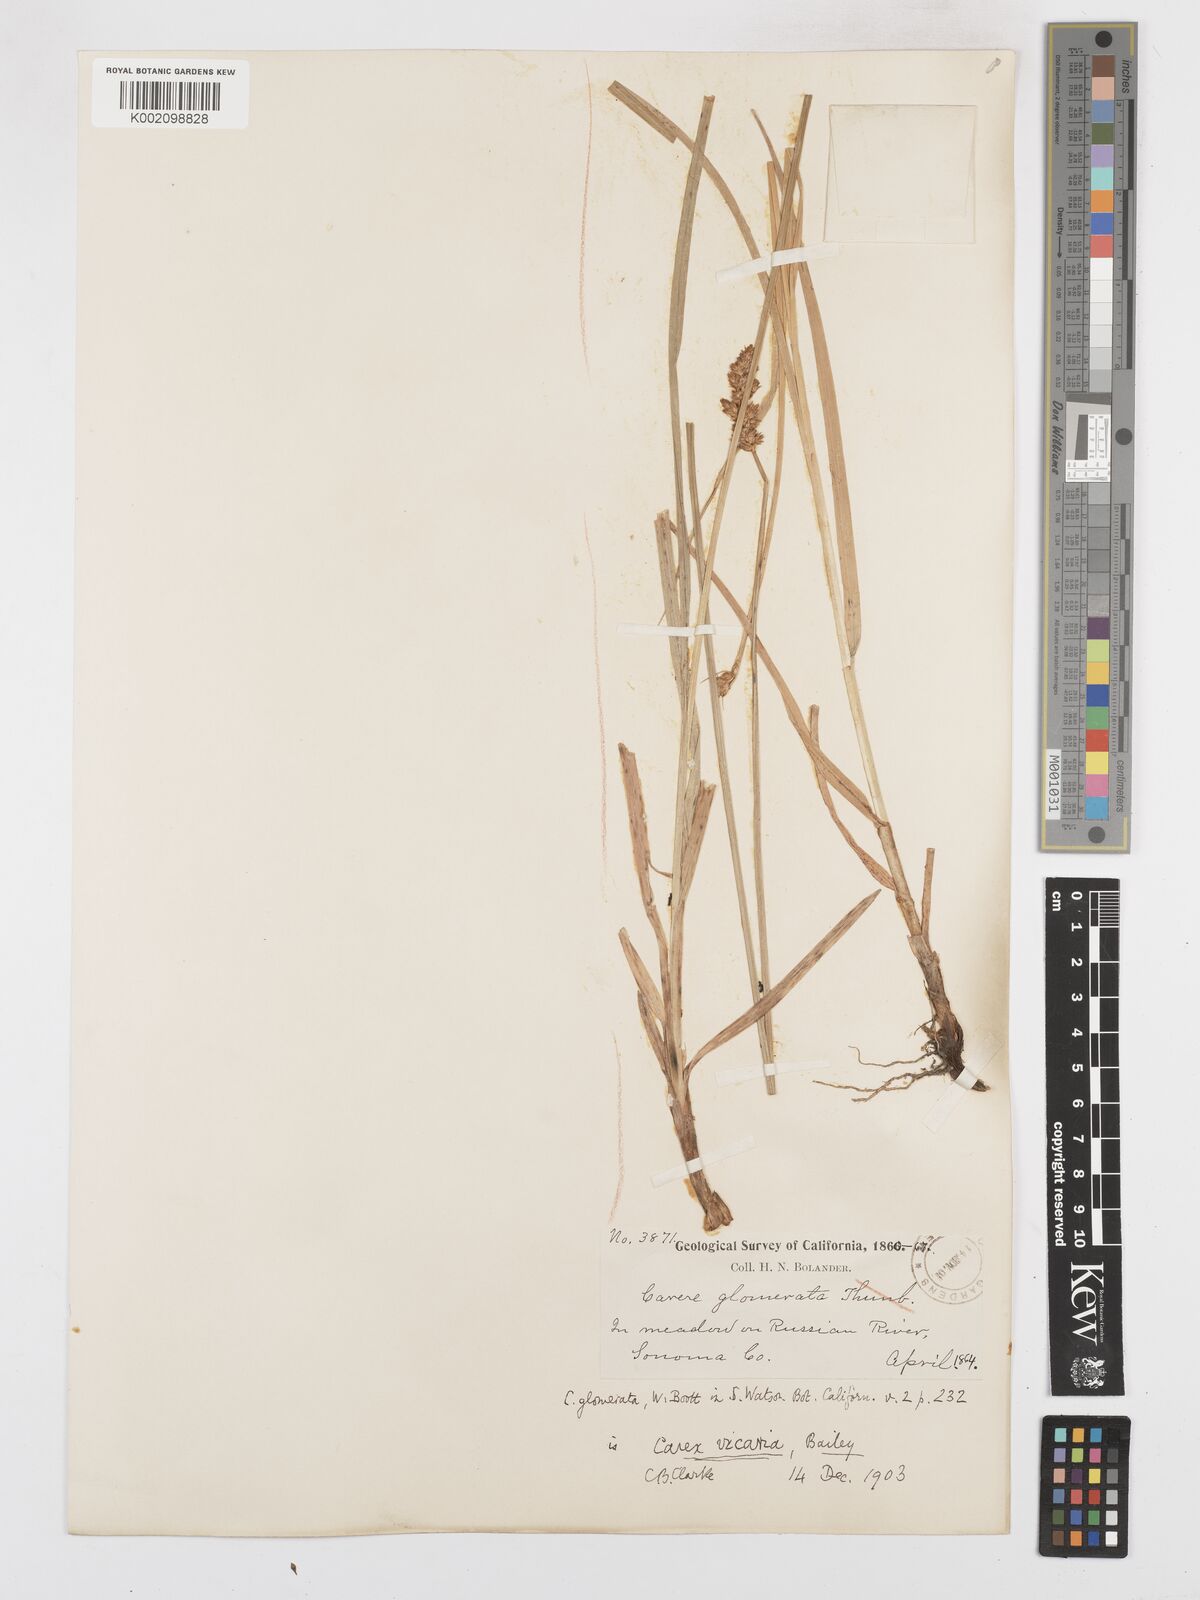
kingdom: Plantae
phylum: Tracheophyta
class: Liliopsida
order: Poales
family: Cyperaceae
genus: Carex
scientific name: Carex densa
